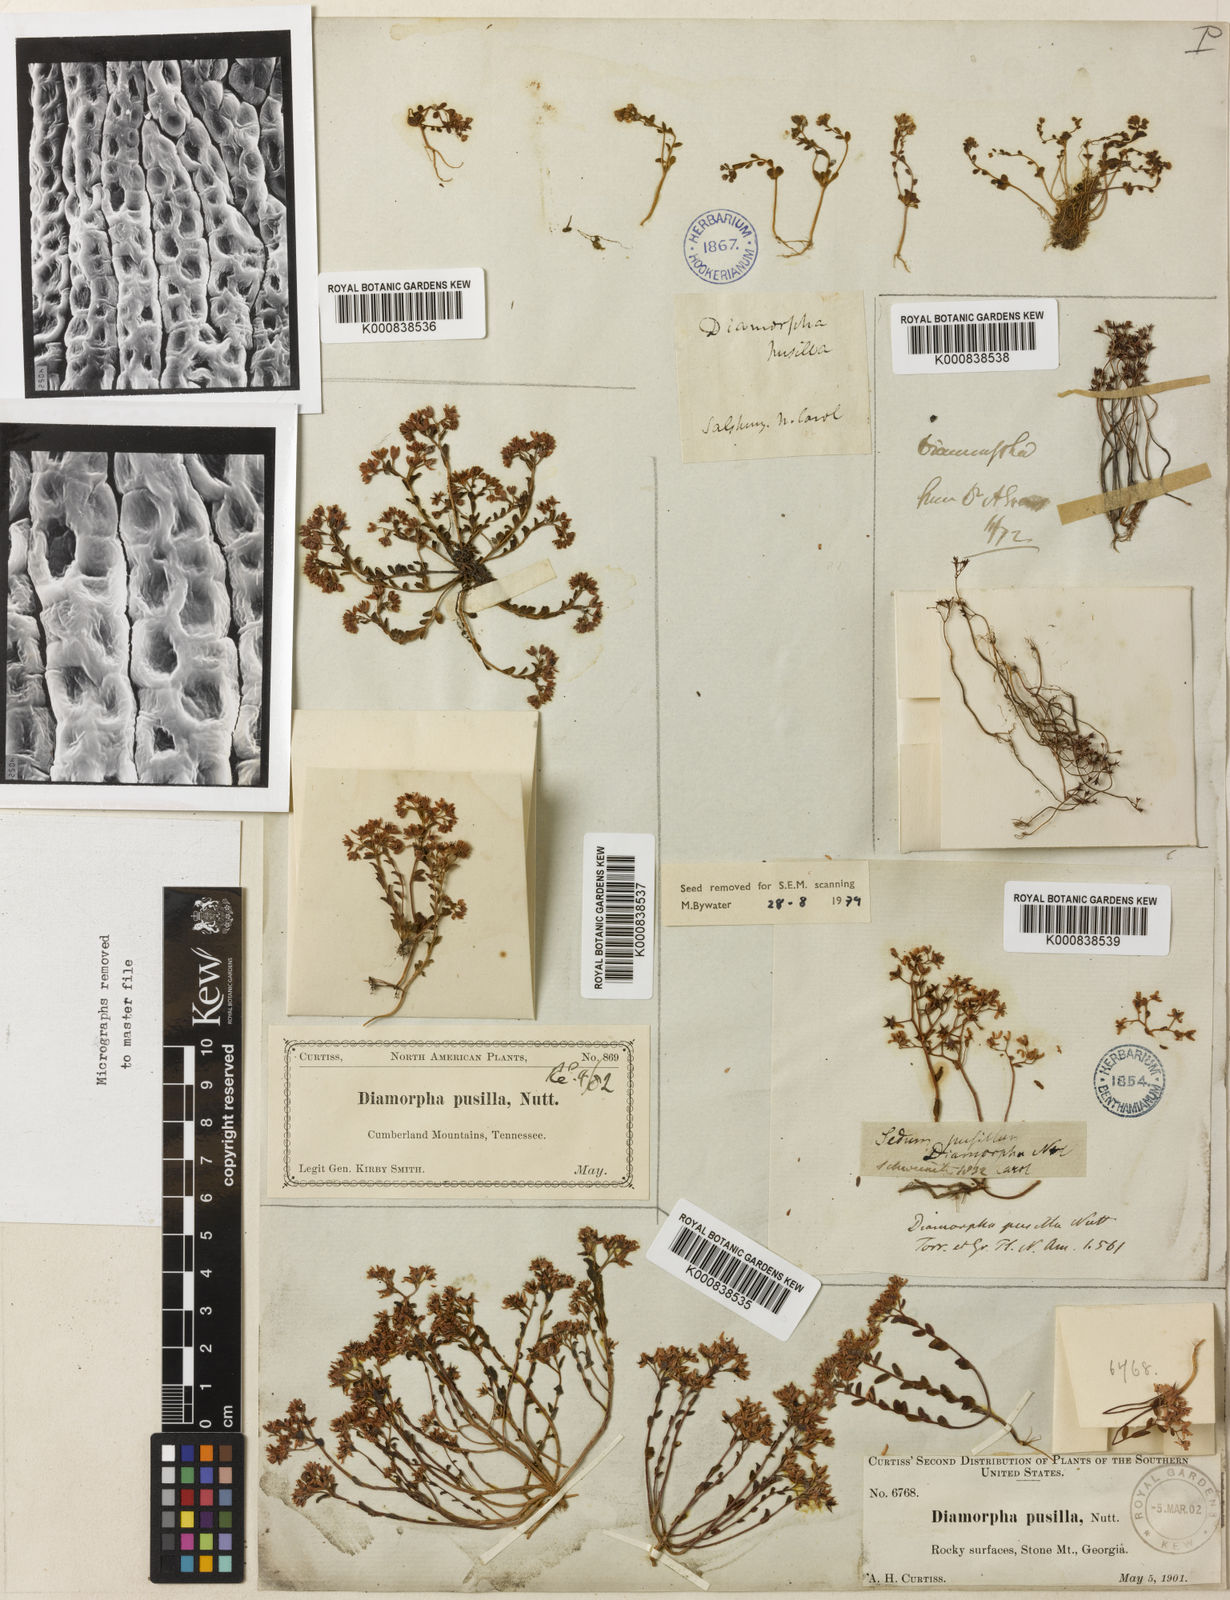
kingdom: Plantae
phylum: Tracheophyta
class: Magnoliopsida
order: Saxifragales
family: Crassulaceae
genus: Sedum
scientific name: Sedum pusillum
